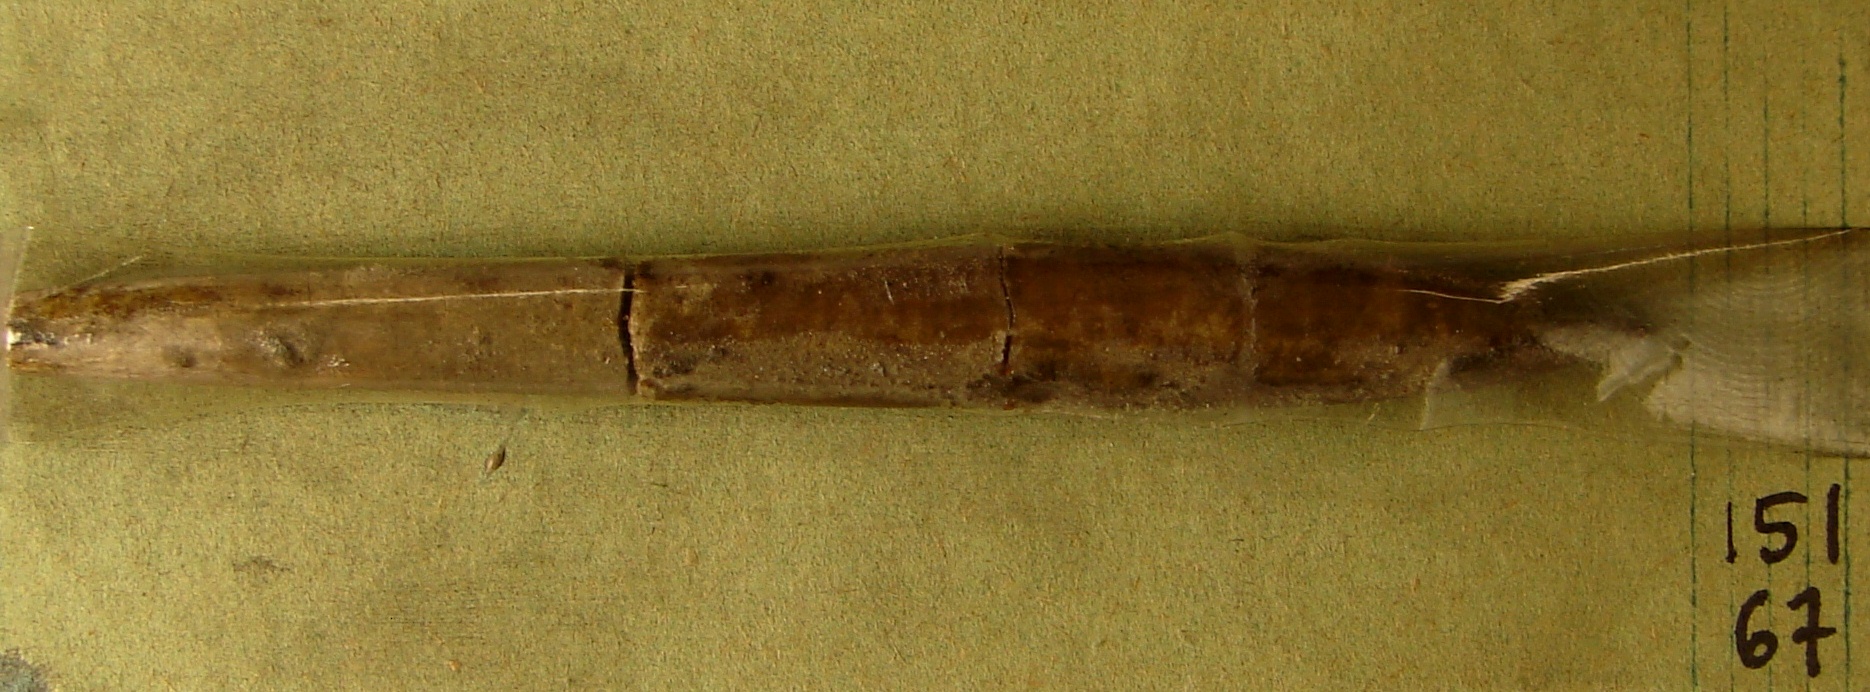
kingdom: Animalia
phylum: Mollusca
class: Cephalopoda
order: Belemnitida
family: Belemnitidae
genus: Belemnites
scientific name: Belemnites
